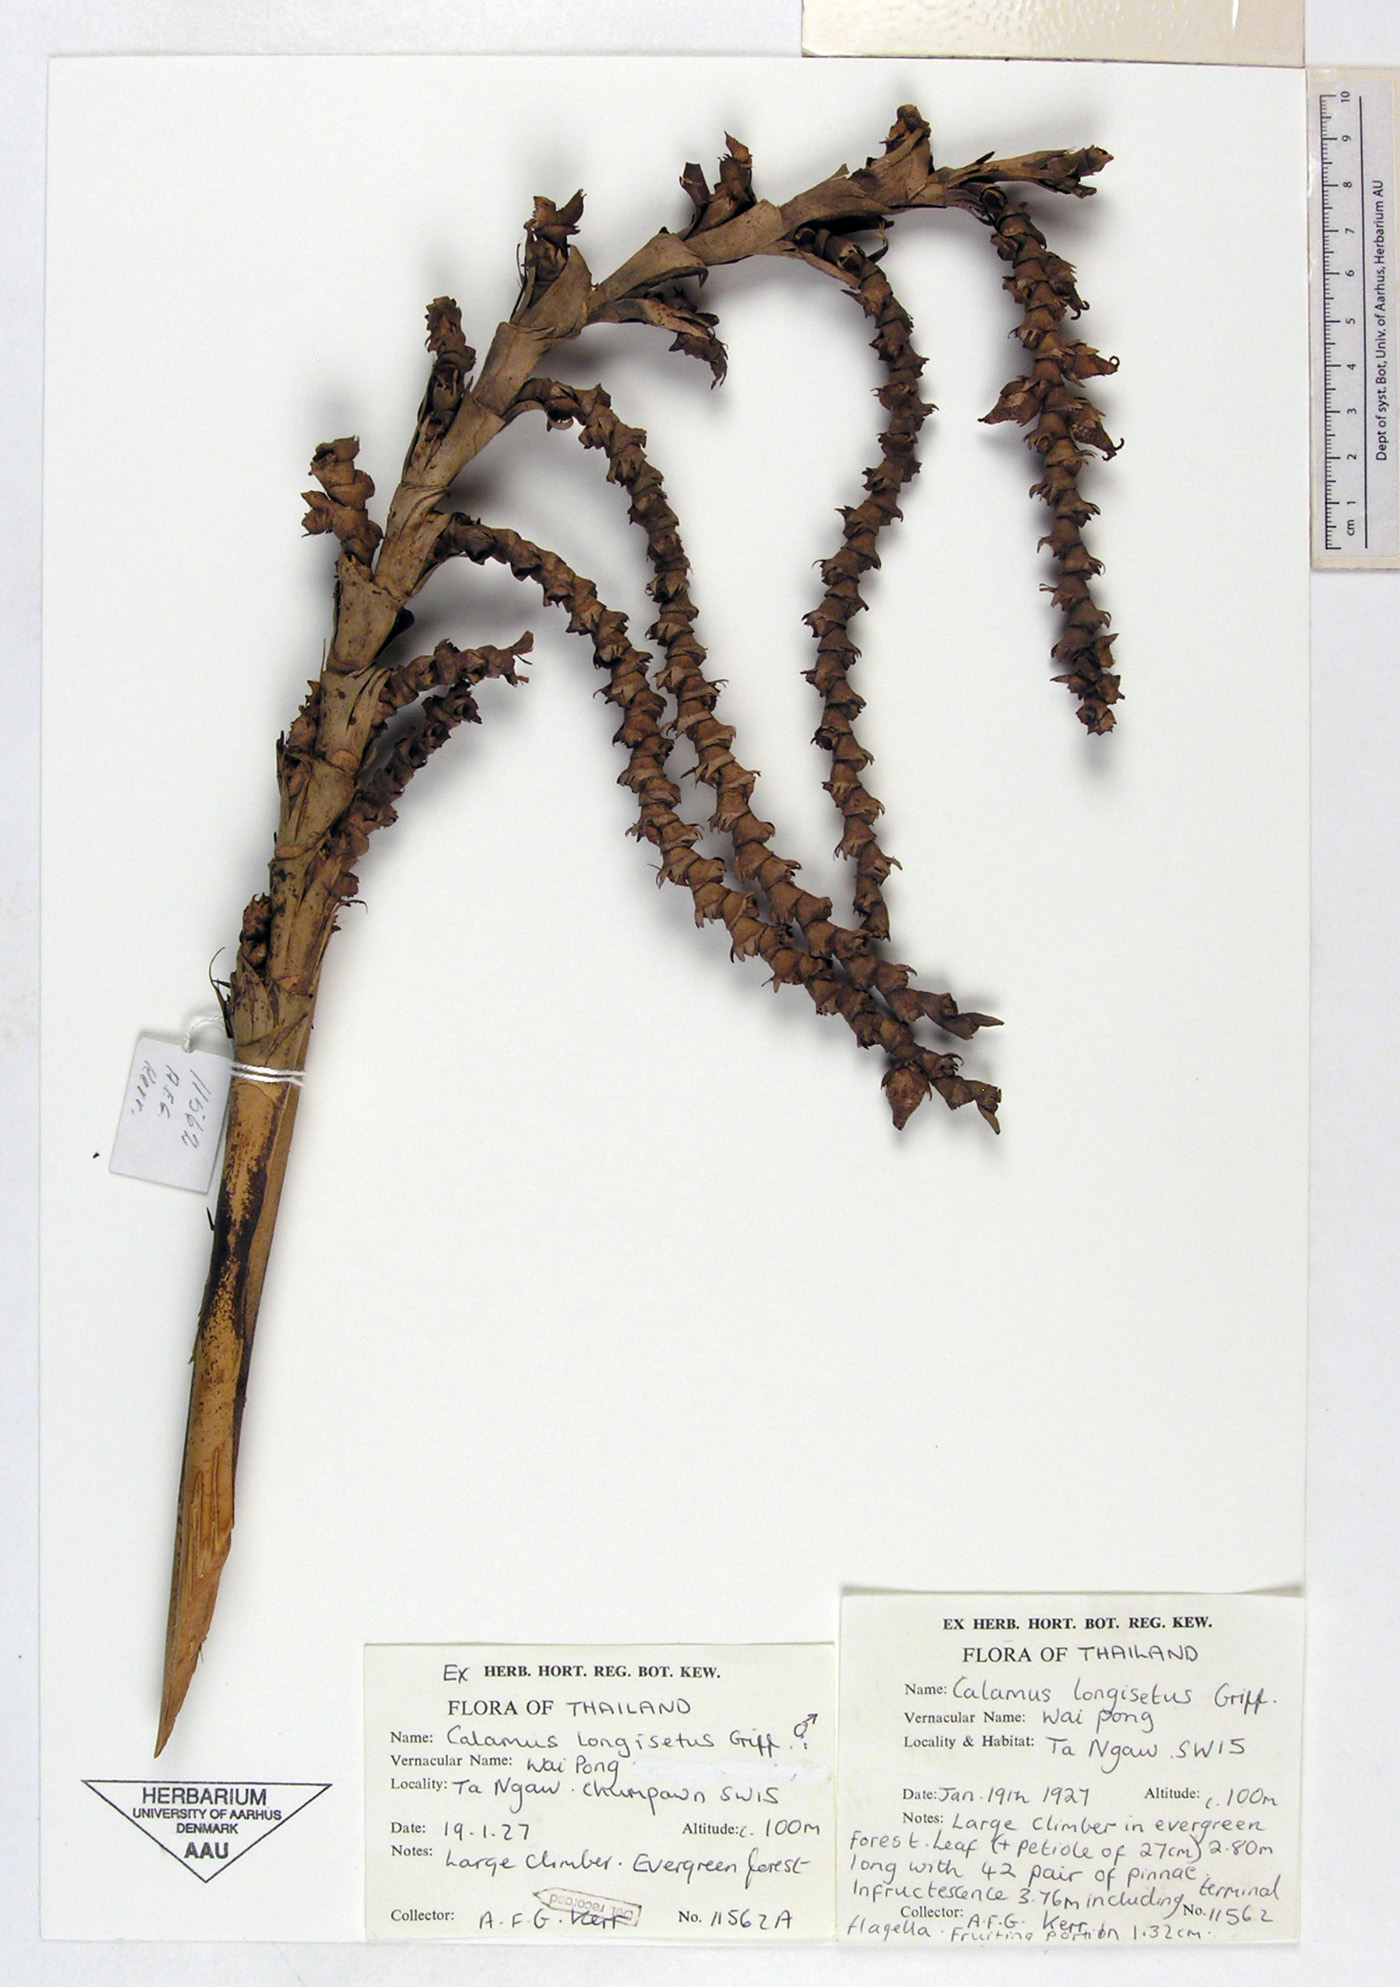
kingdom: Plantae
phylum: Tracheophyta
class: Liliopsida
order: Arecales
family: Arecaceae
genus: Calamus
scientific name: Calamus longisetus
